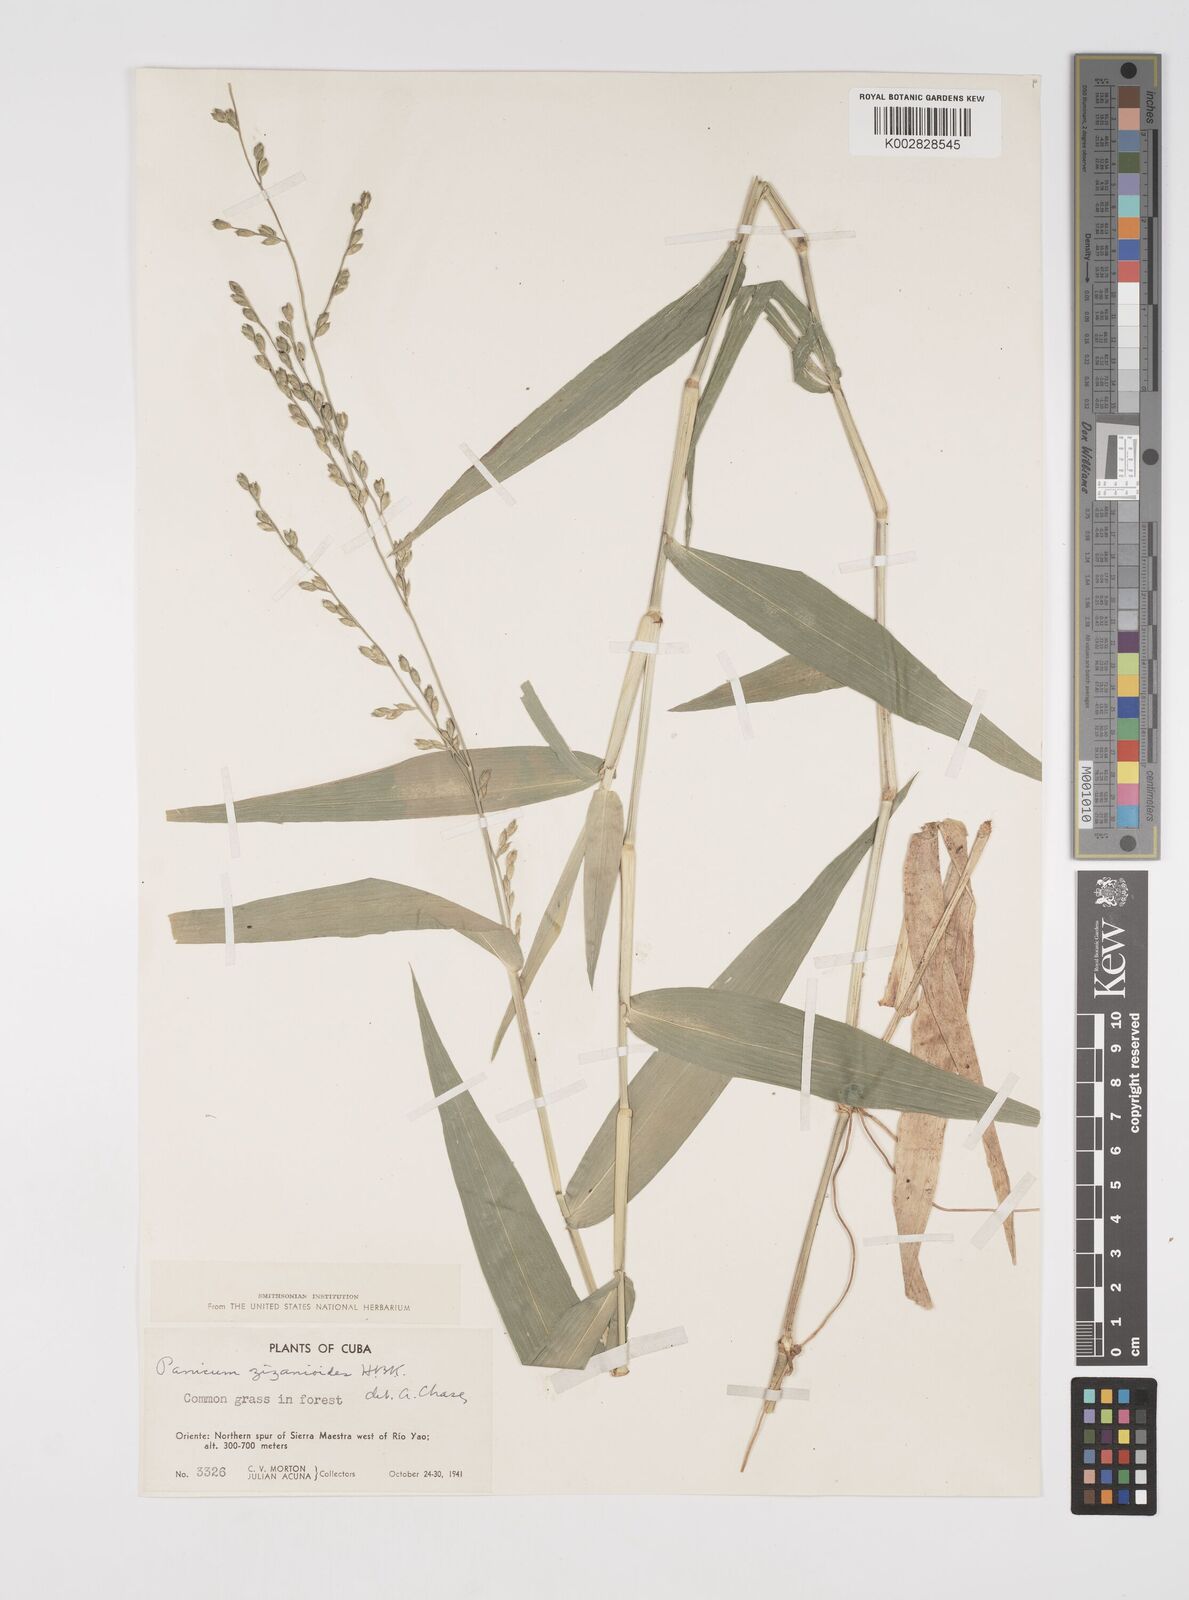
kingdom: Plantae
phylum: Tracheophyta
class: Liliopsida
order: Poales
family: Poaceae
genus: Acroceras
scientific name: Acroceras zizanioides
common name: Oat grass
